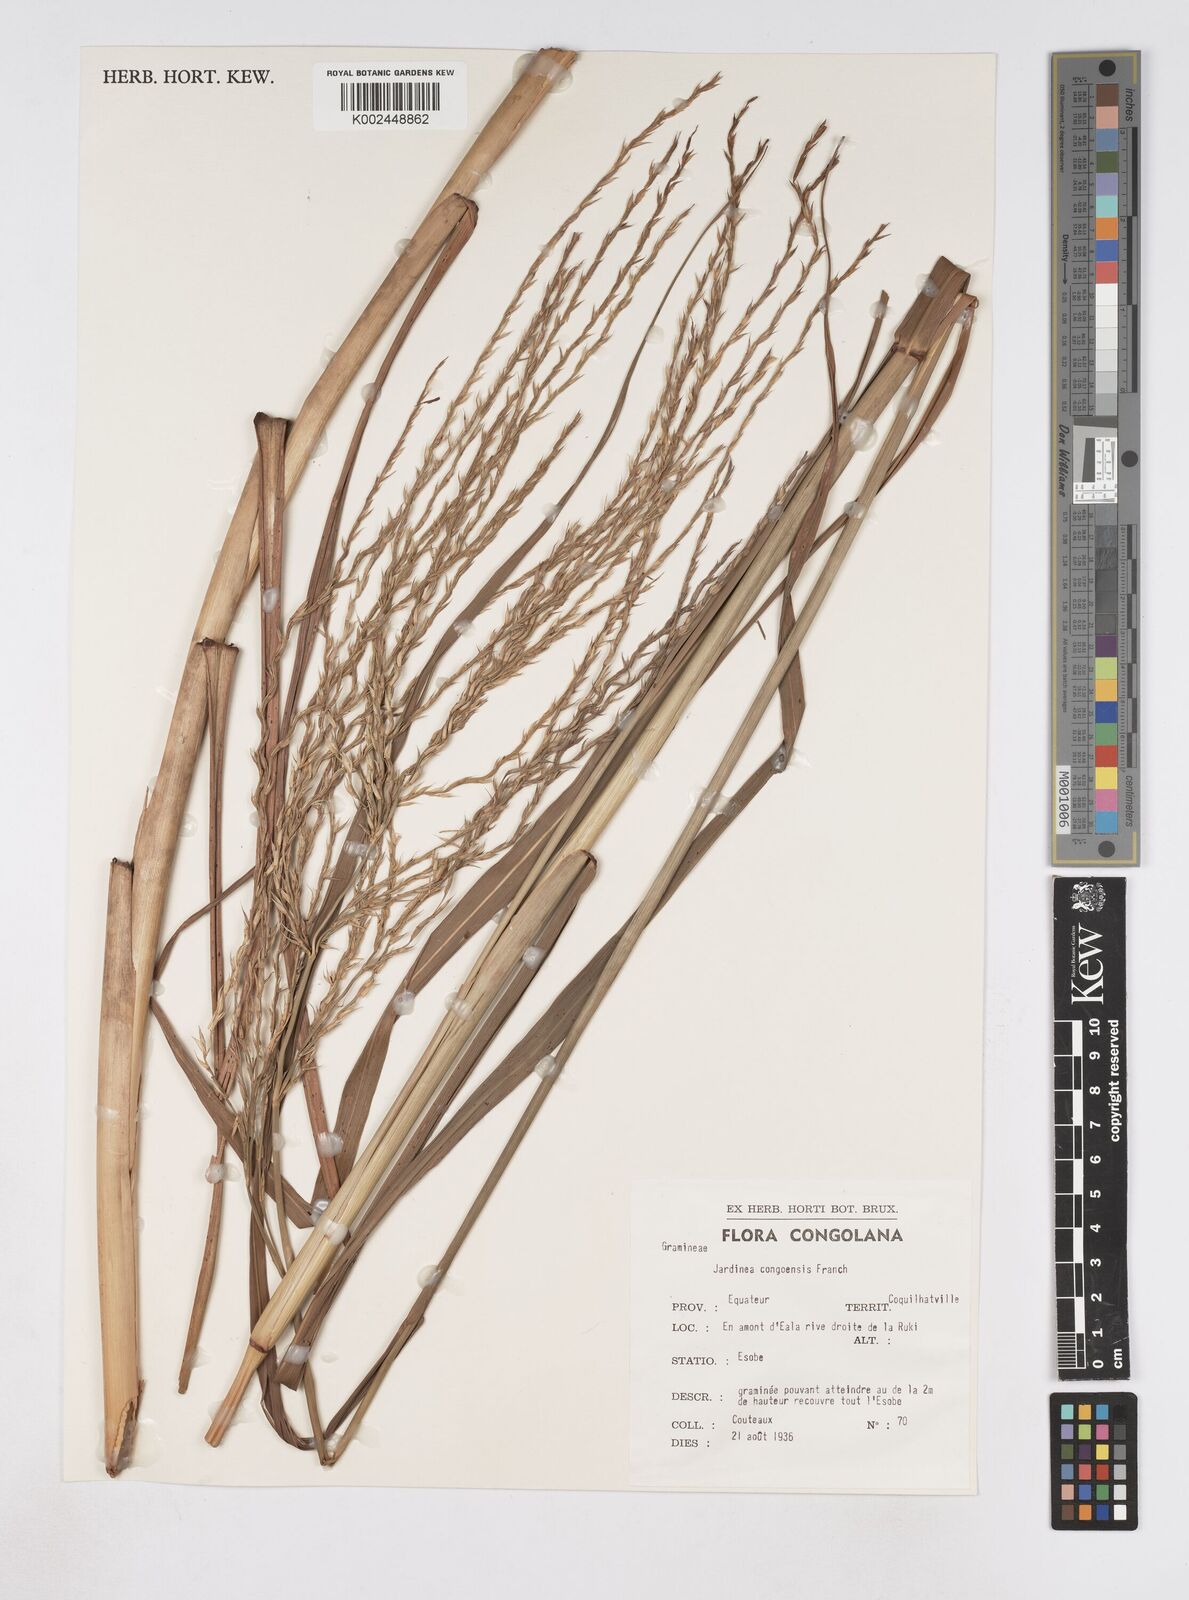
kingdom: Plantae
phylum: Tracheophyta
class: Liliopsida
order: Poales
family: Poaceae
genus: Phacelurus
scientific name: Phacelurus gabonensis
